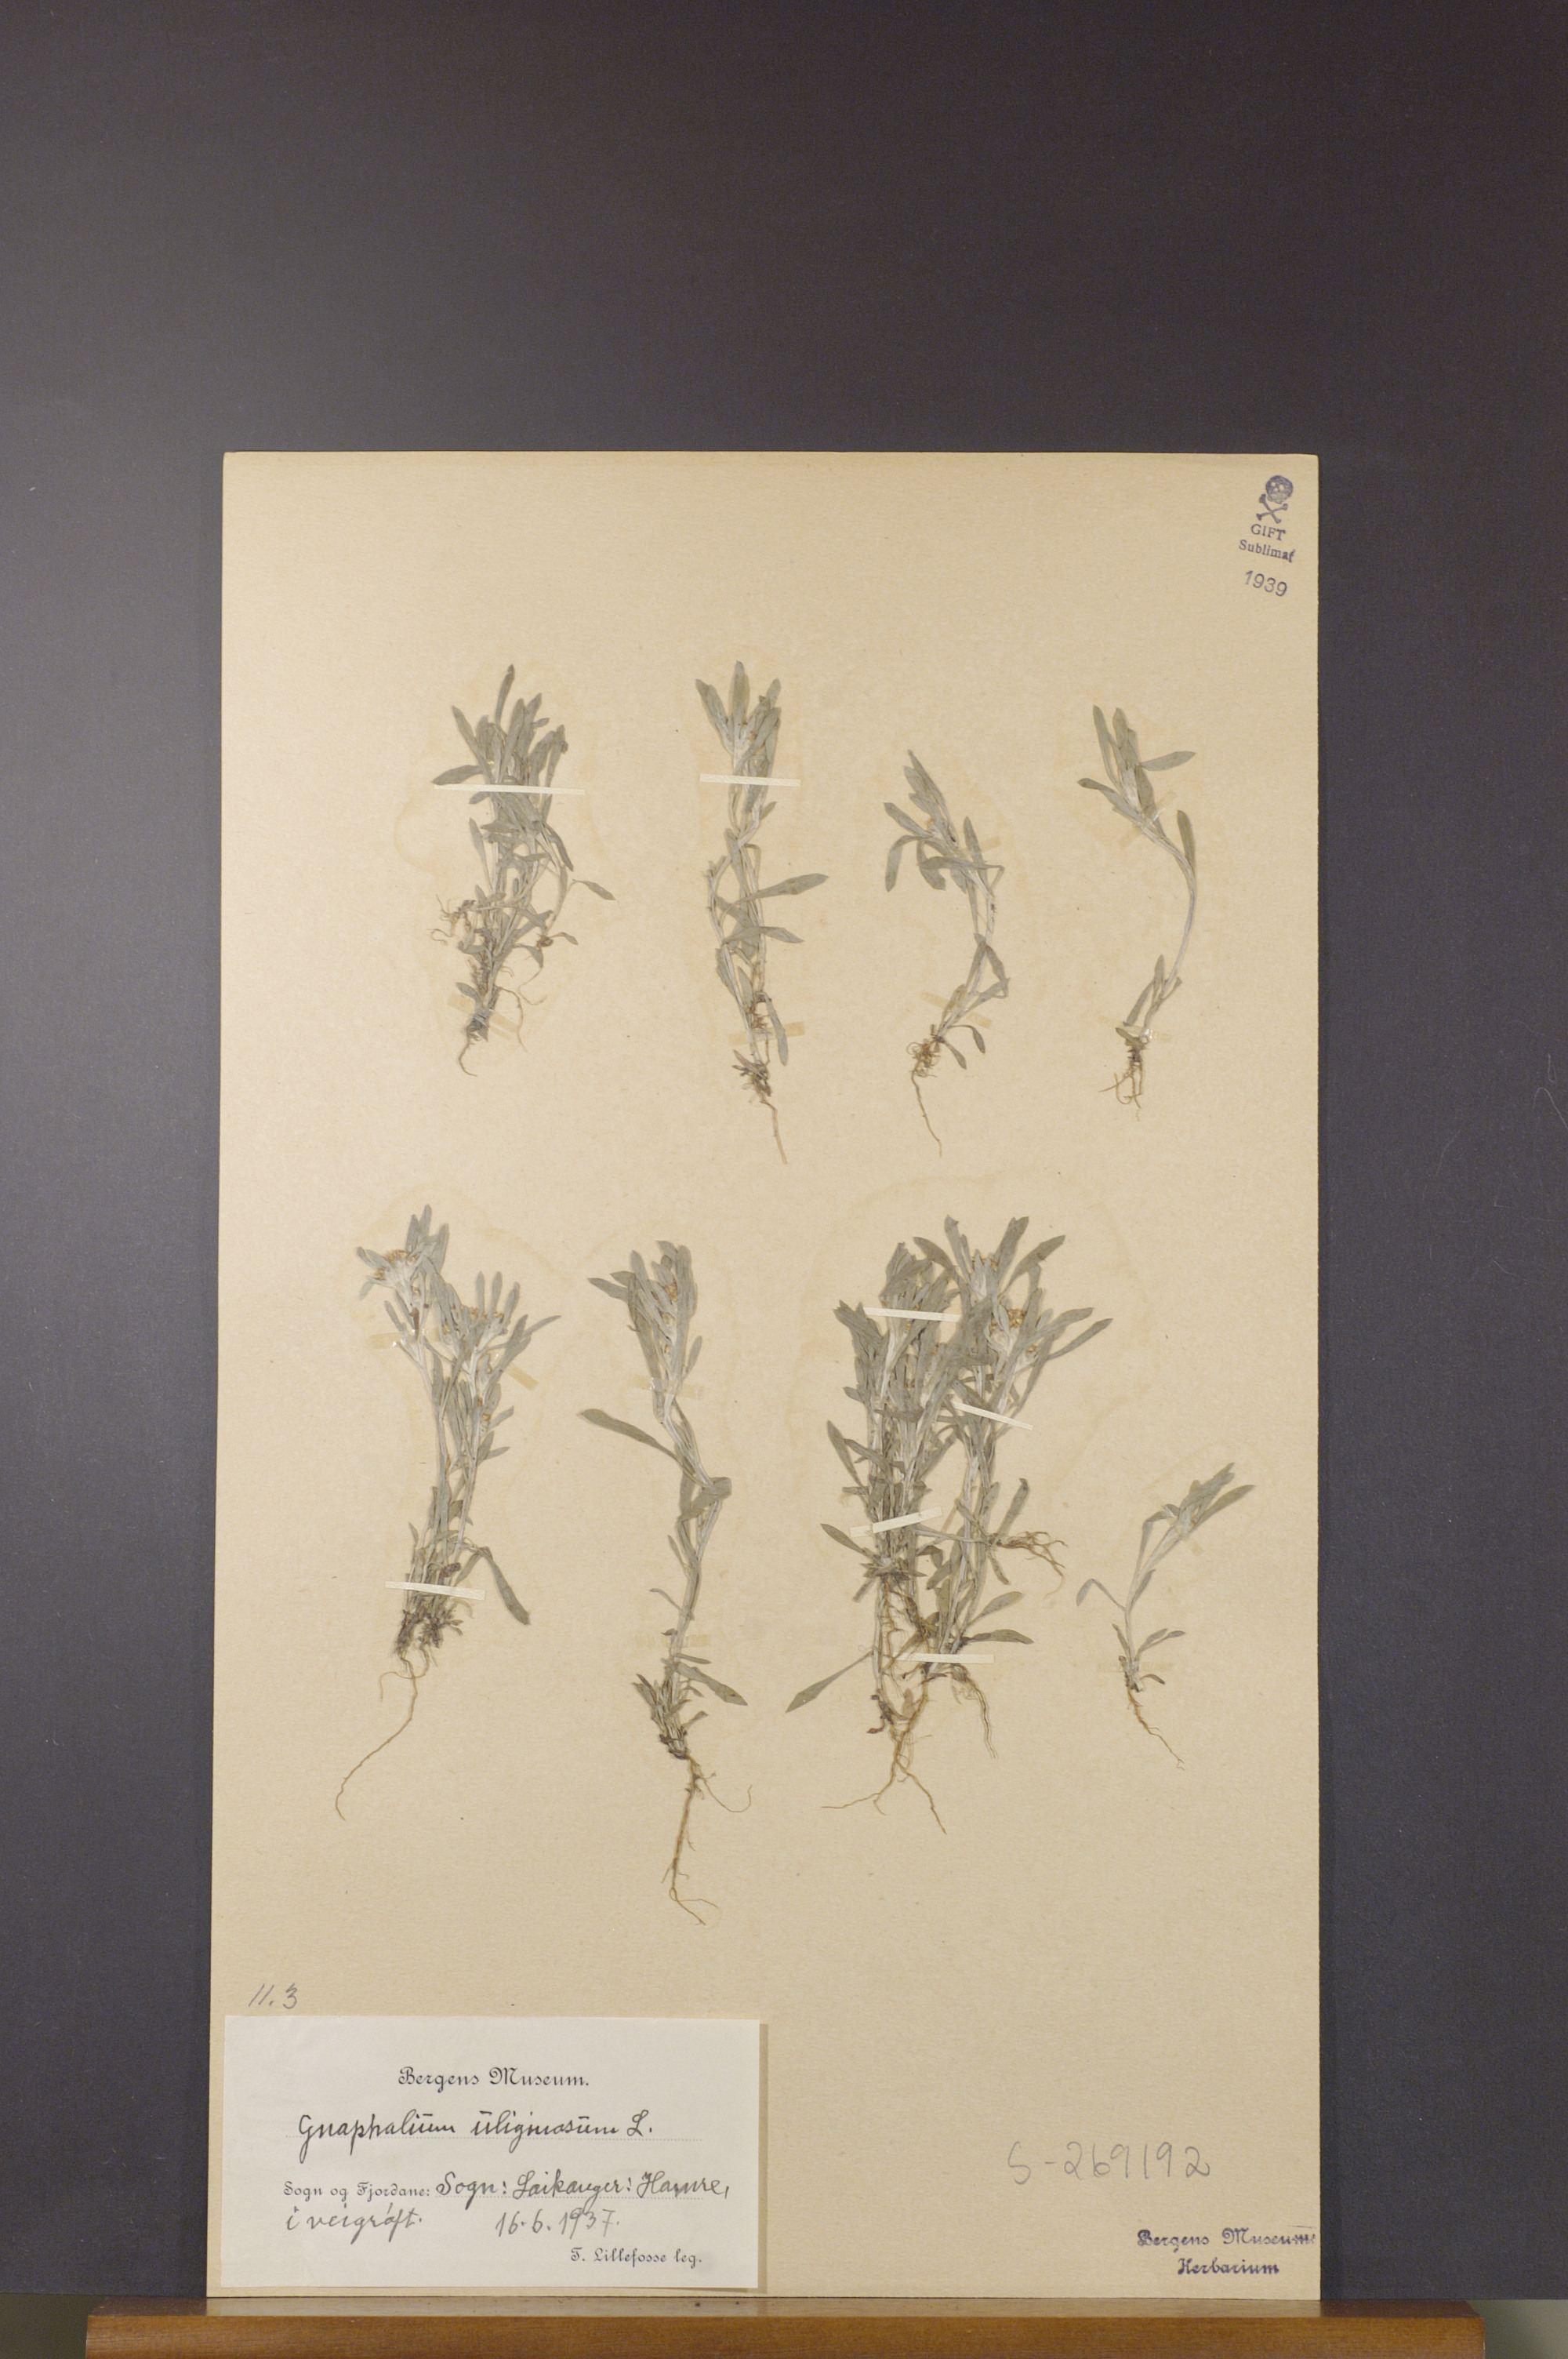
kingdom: Plantae
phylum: Tracheophyta
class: Magnoliopsida
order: Asterales
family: Asteraceae
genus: Gnaphalium
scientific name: Gnaphalium uliginosum
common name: Marsh cudweed
